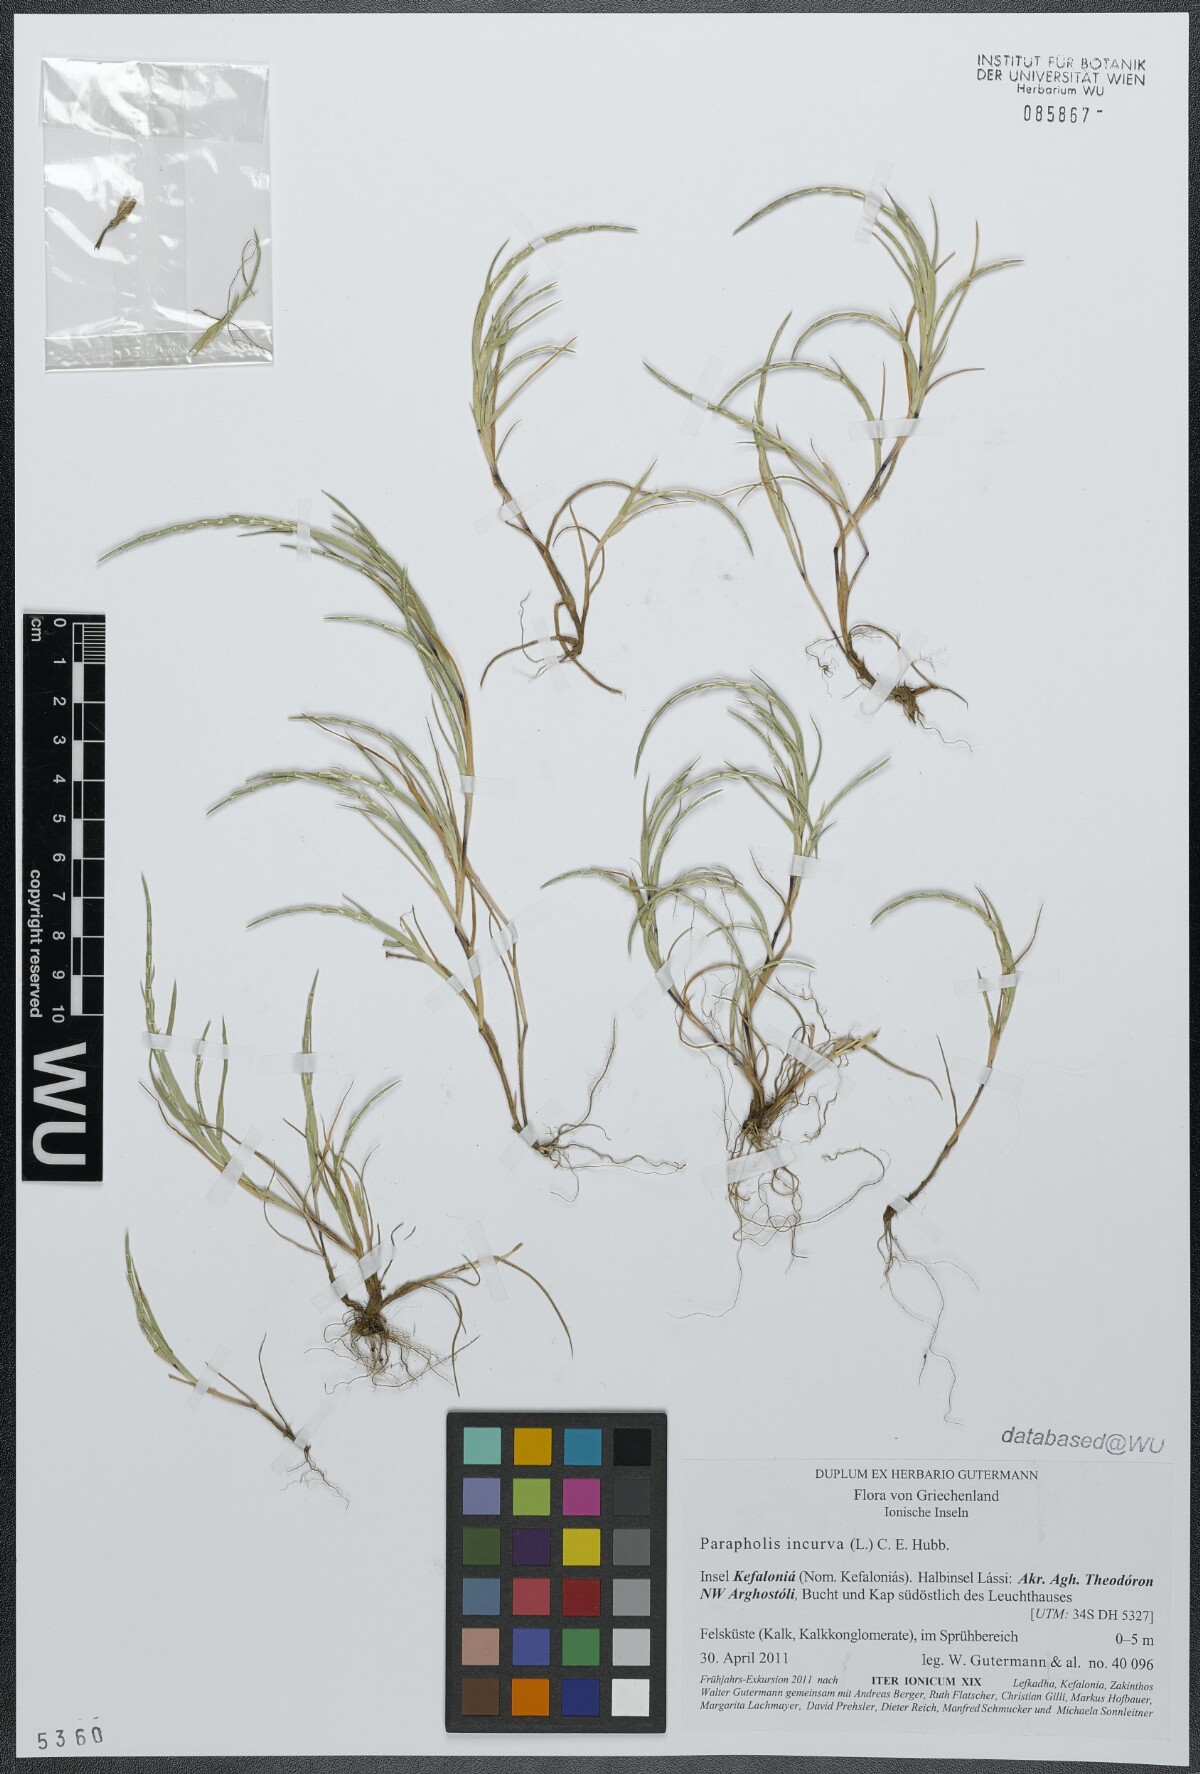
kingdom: Plantae
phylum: Tracheophyta
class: Liliopsida
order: Poales
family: Poaceae
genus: Parapholis
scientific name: Parapholis incurva
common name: Curved sicklegrass
